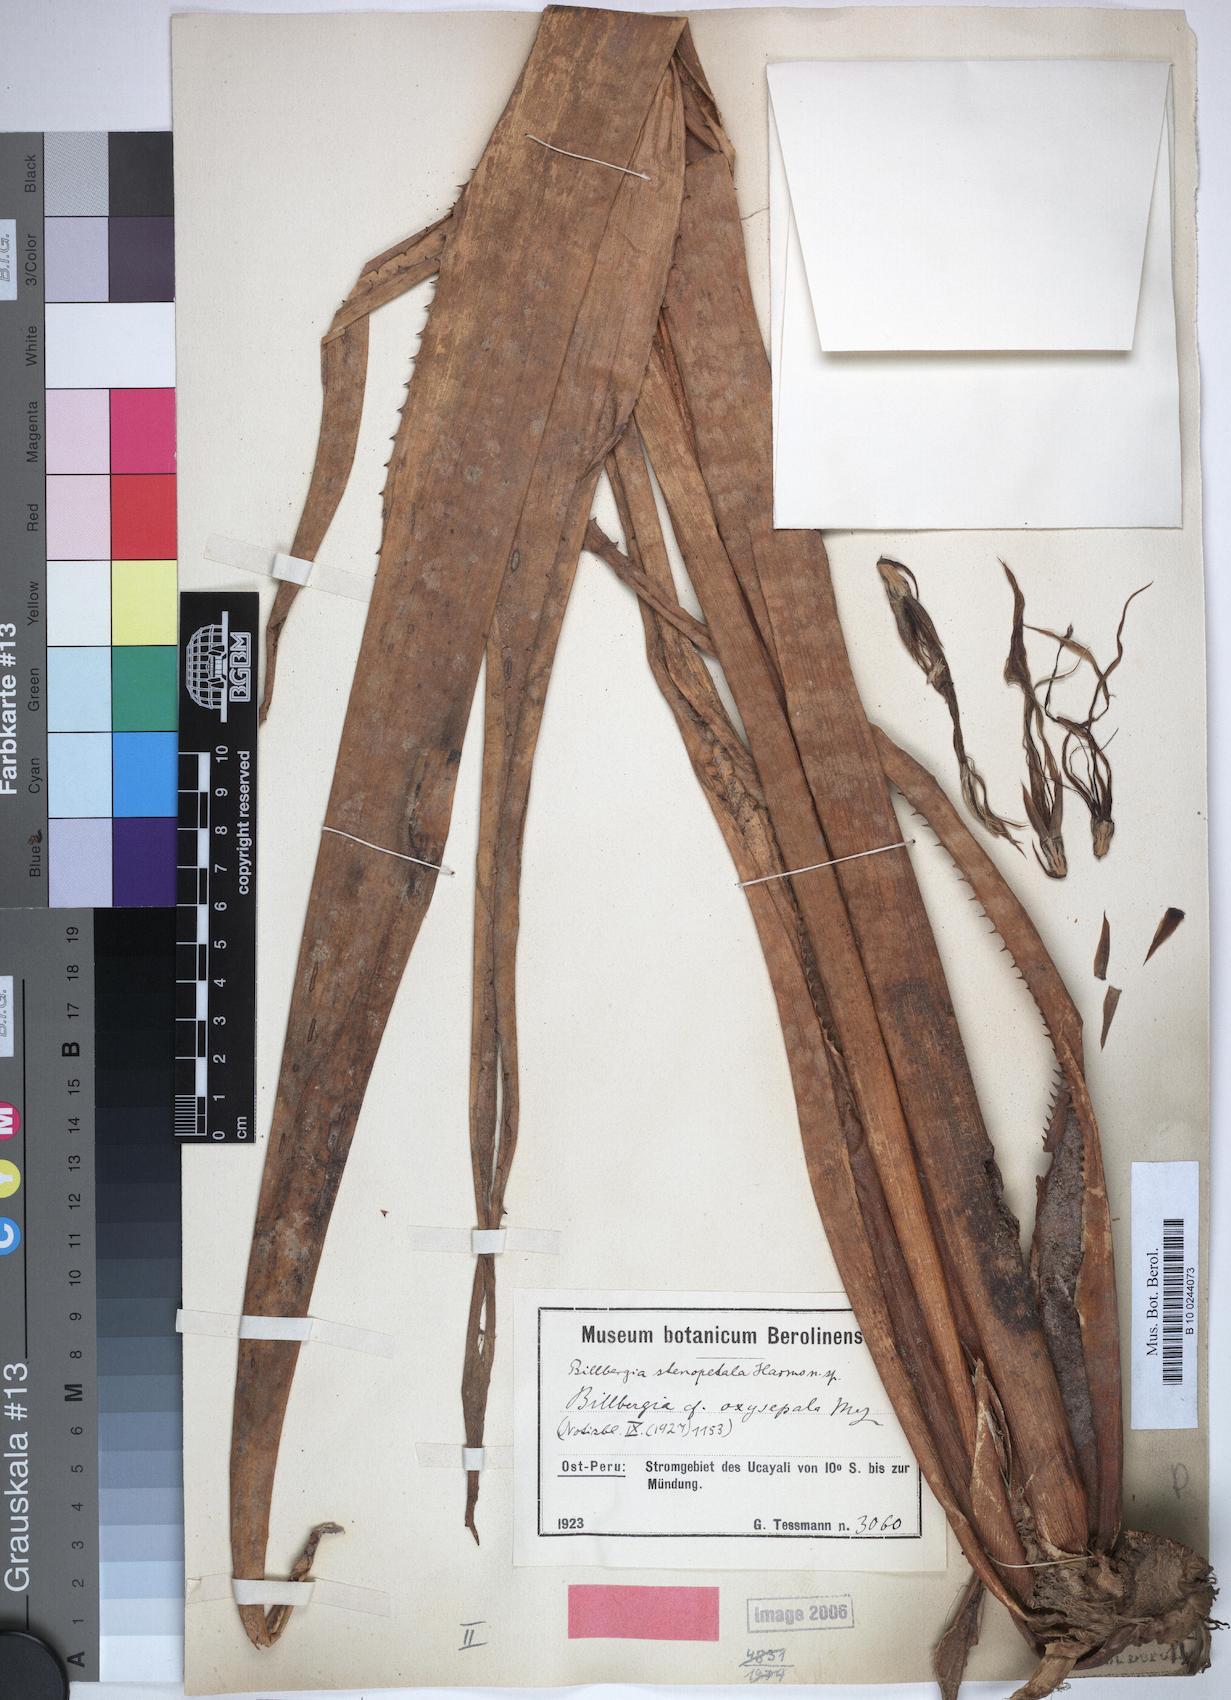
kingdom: Plantae
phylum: Tracheophyta
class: Liliopsida
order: Poales
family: Bromeliaceae
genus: Billbergia
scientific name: Billbergia stenopetala
